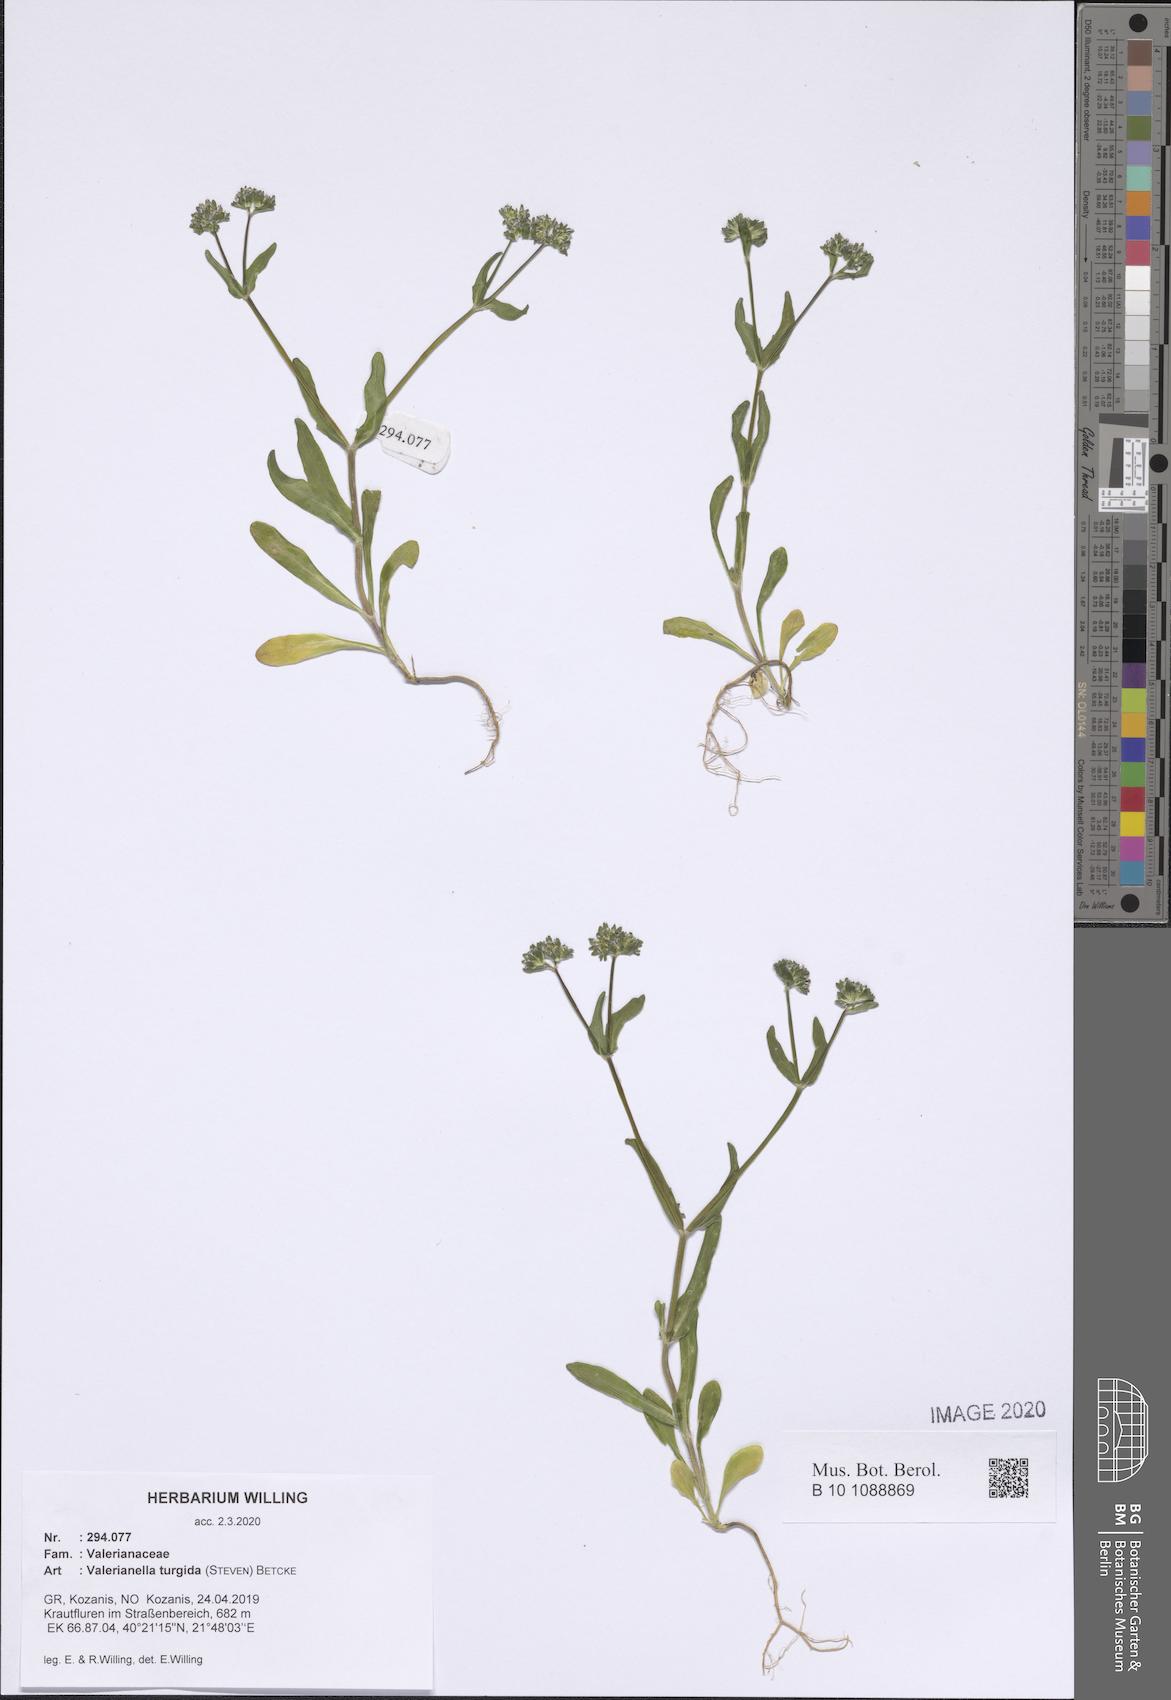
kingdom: Plantae
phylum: Tracheophyta
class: Magnoliopsida
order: Dipsacales
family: Caprifoliaceae
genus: Valerianella
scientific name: Valerianella turgida
